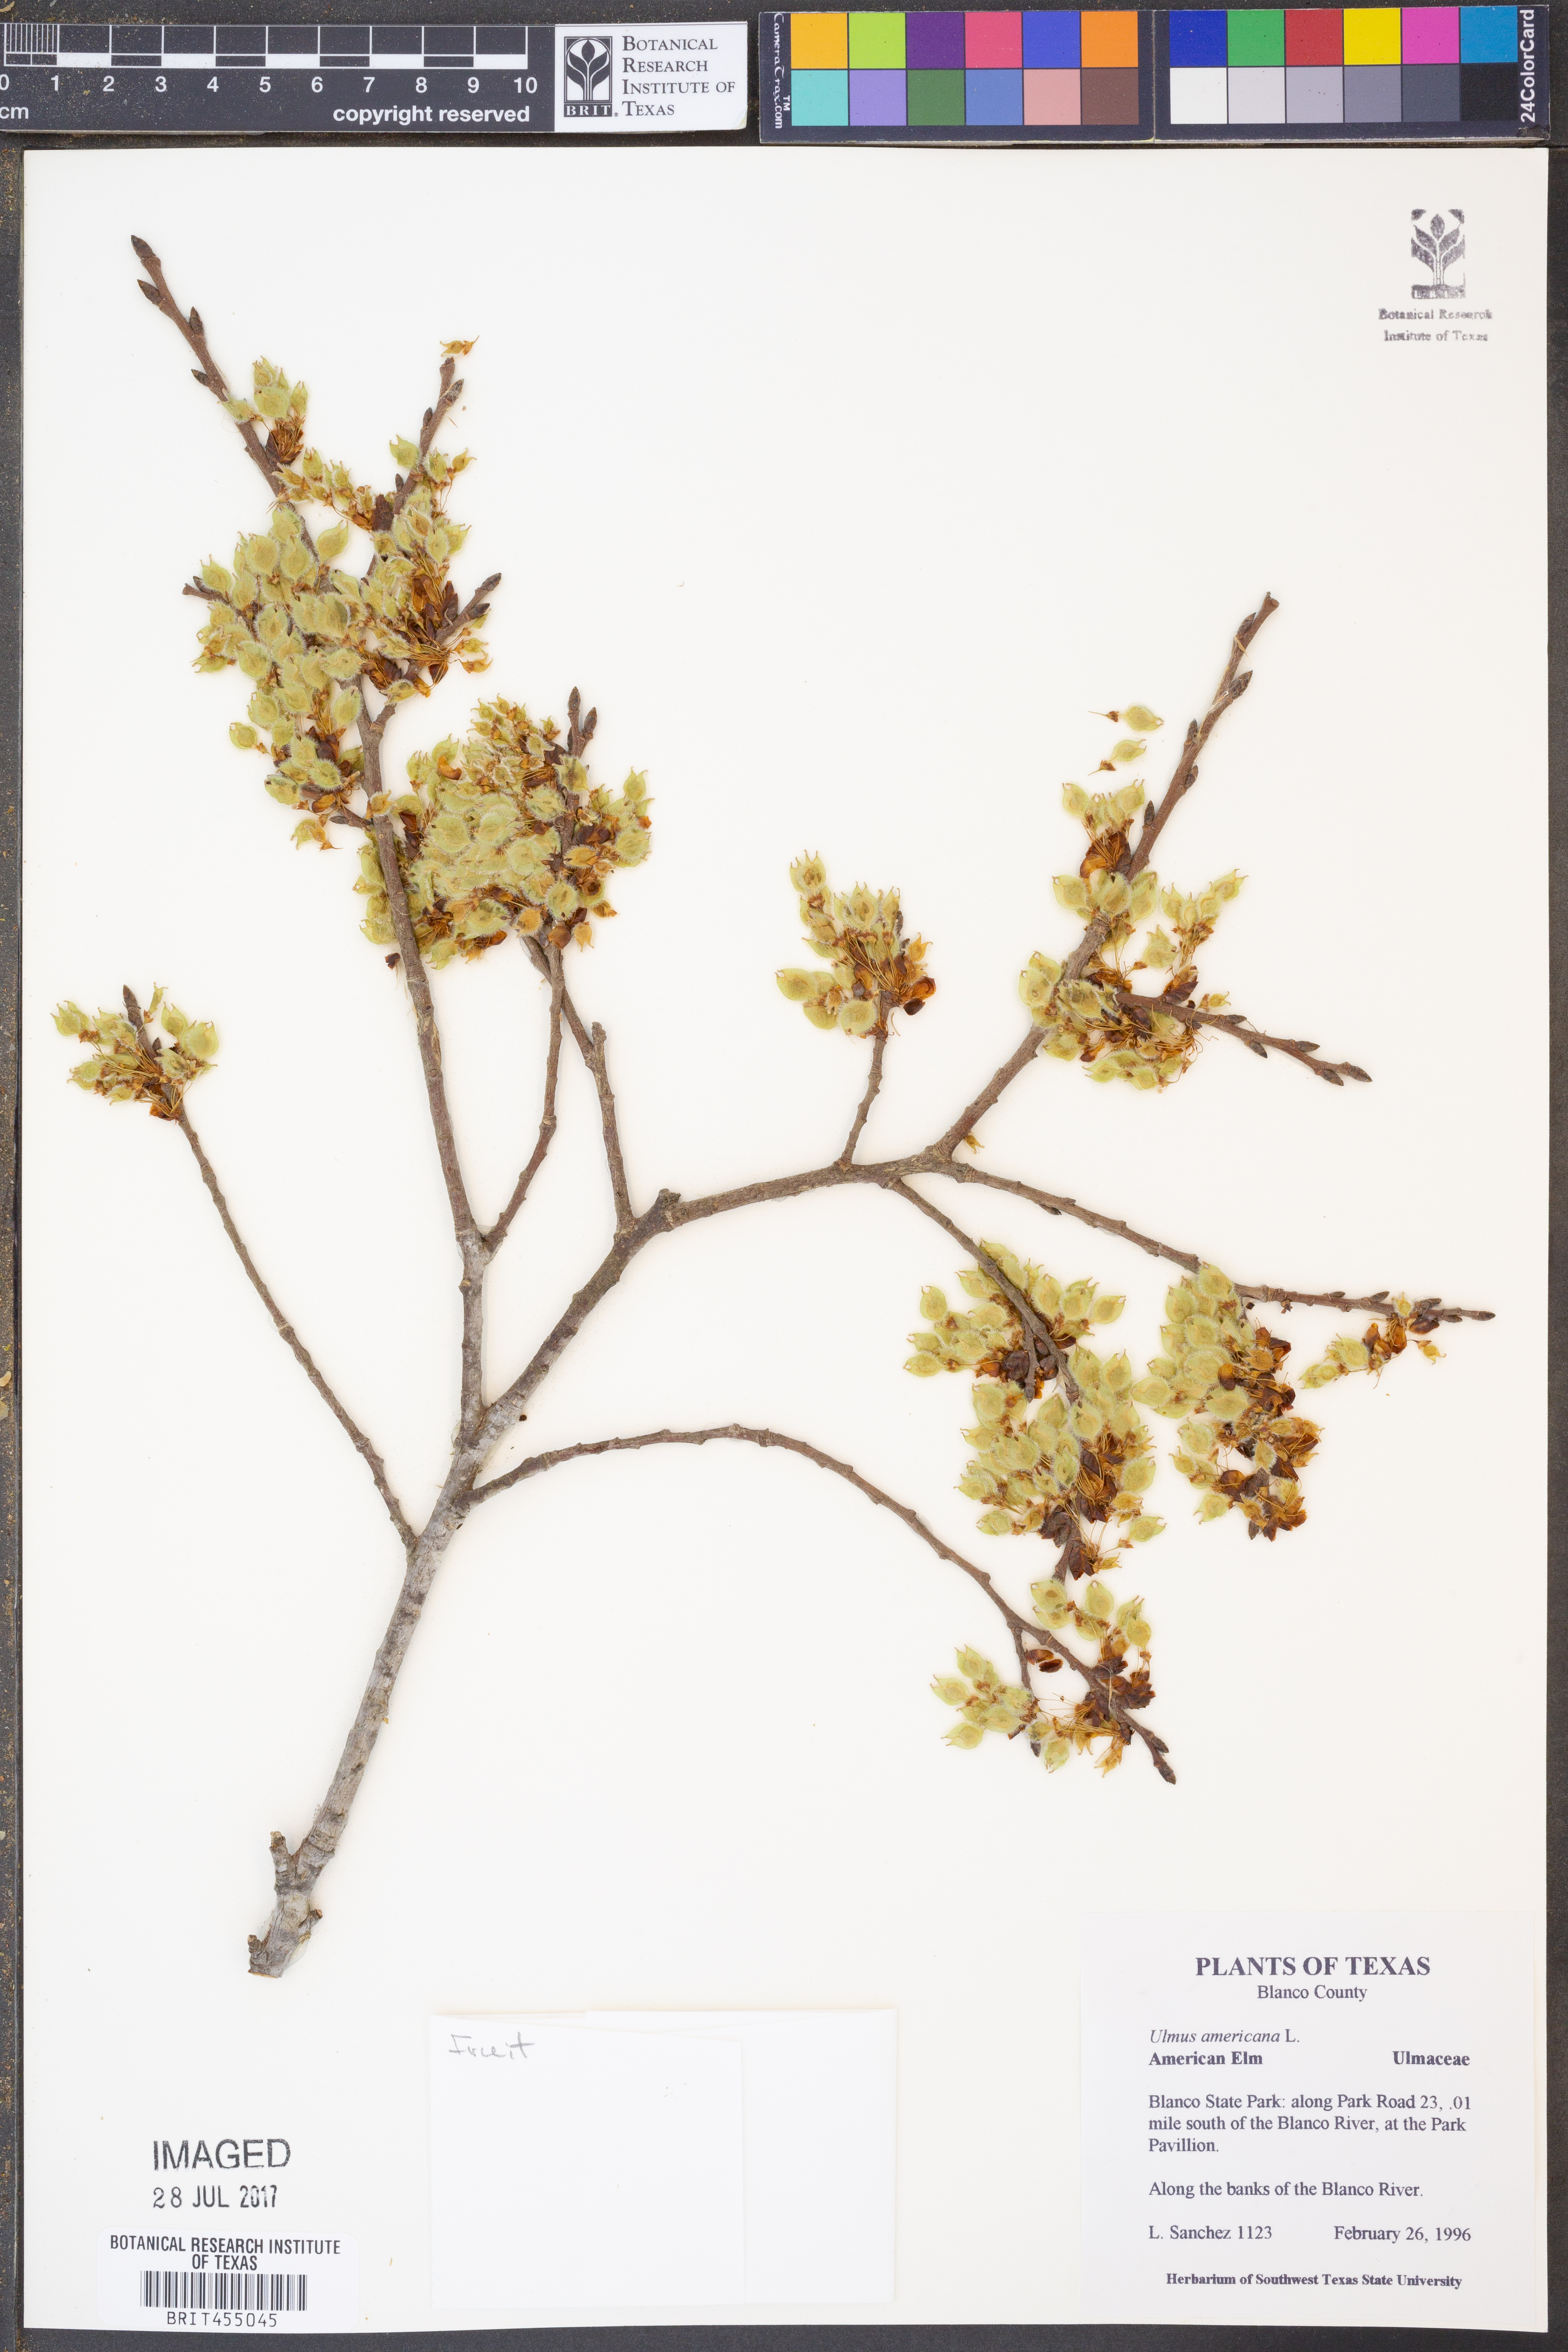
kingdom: Plantae
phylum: Tracheophyta
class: Magnoliopsida
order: Rosales
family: Ulmaceae
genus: Ulmus
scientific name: Ulmus americana
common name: American elm
